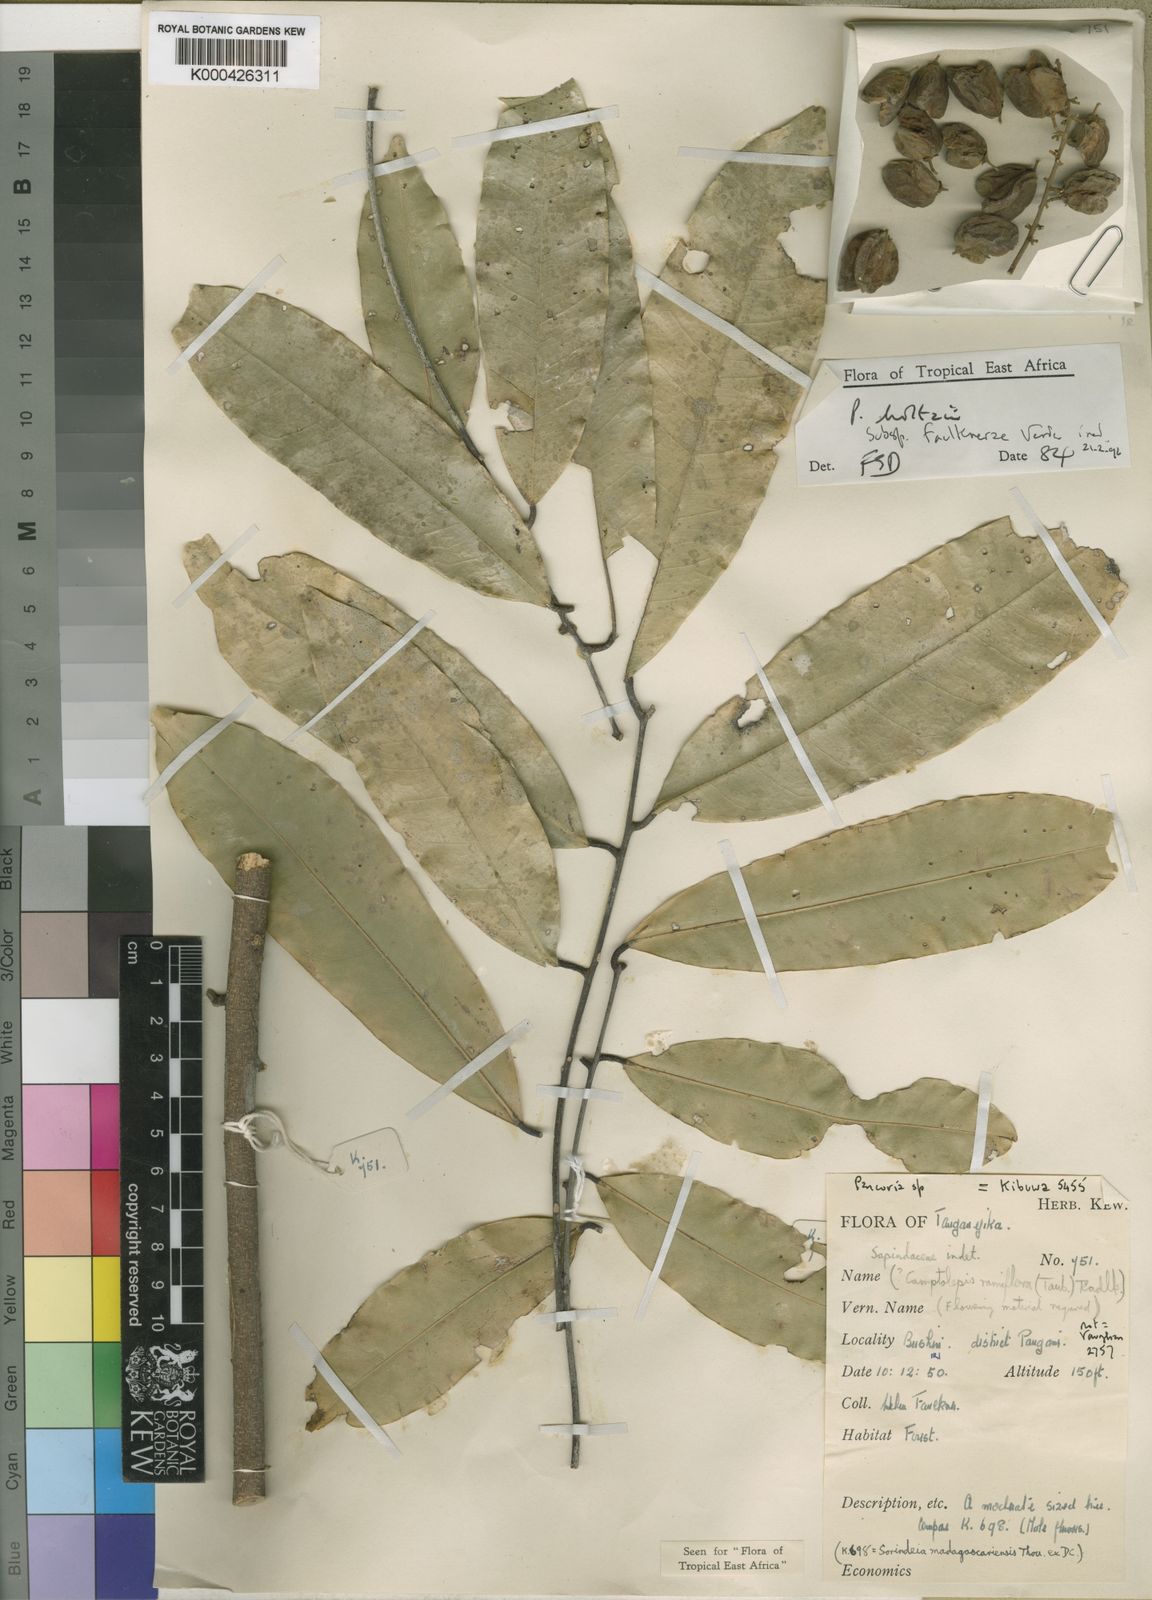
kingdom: Plantae
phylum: Tracheophyta
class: Magnoliopsida
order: Sapindales
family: Sapindaceae
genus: Pancovia
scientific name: Pancovia holtzii
